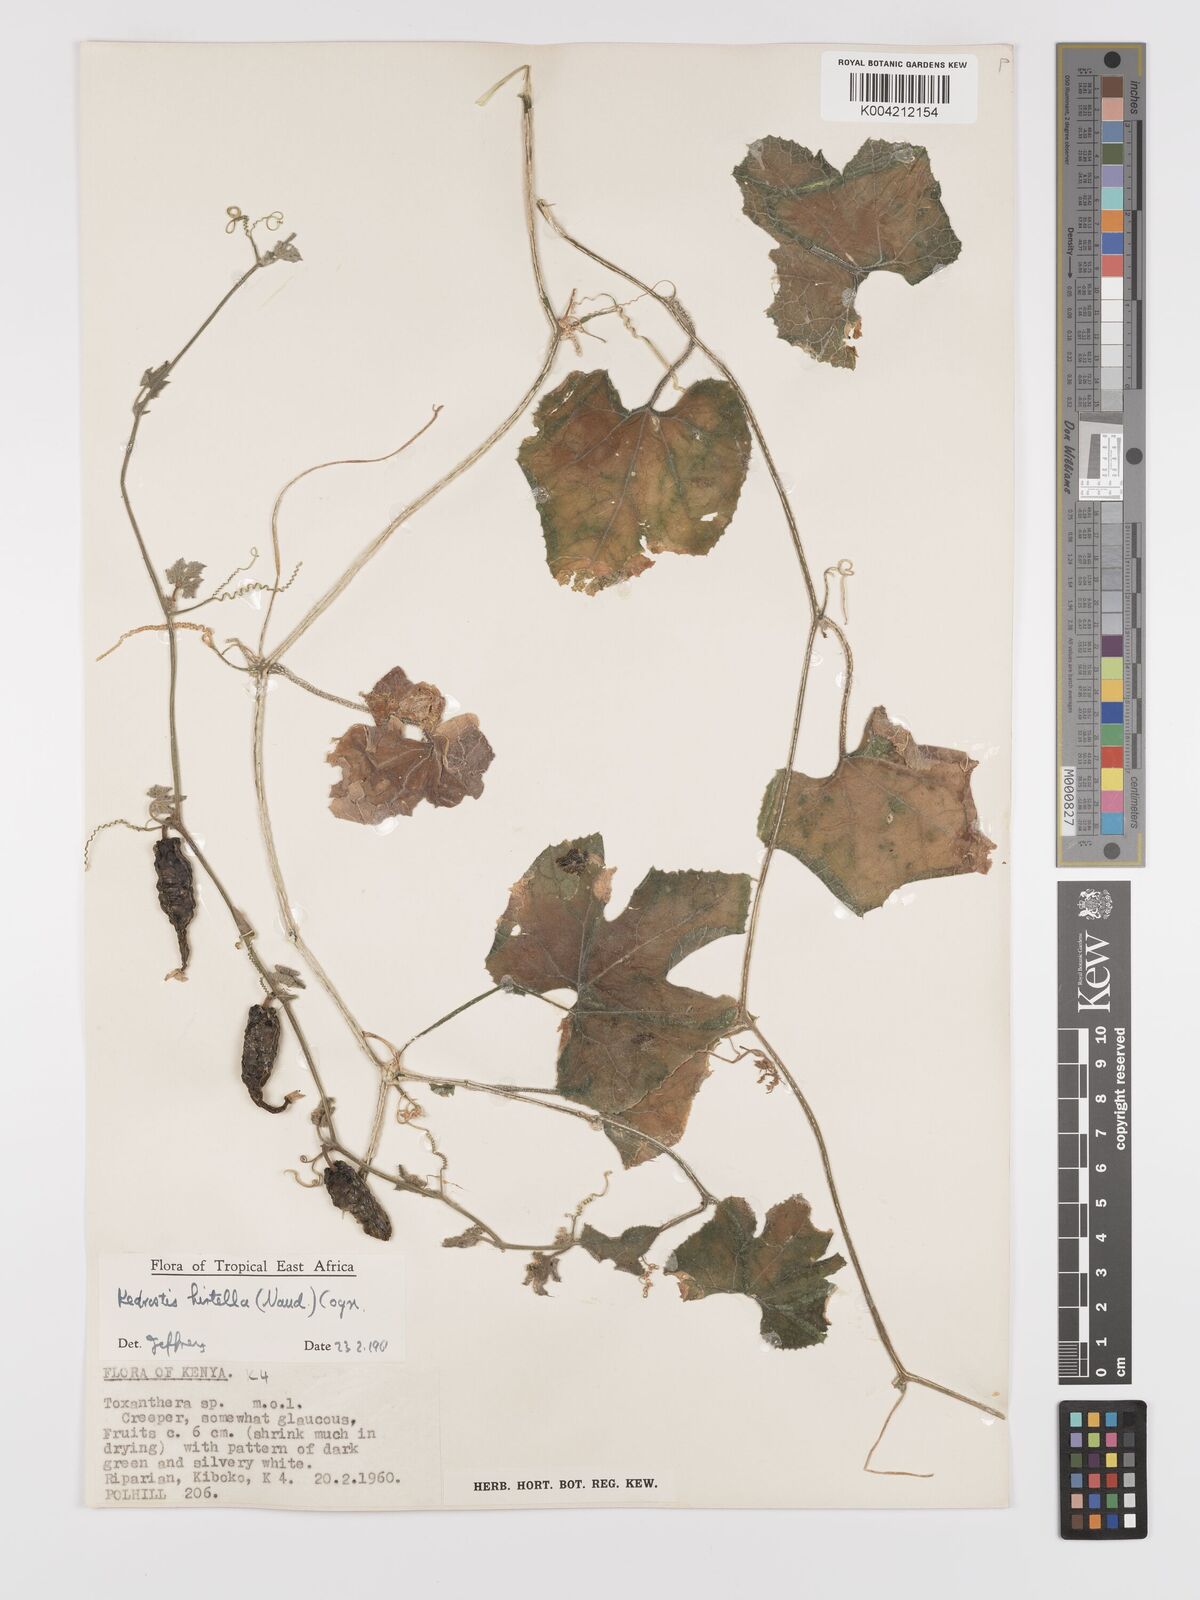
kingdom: Plantae
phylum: Tracheophyta
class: Magnoliopsida
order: Cucurbitales
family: Cucurbitaceae
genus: Kedrostis
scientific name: Kedrostis leloja
